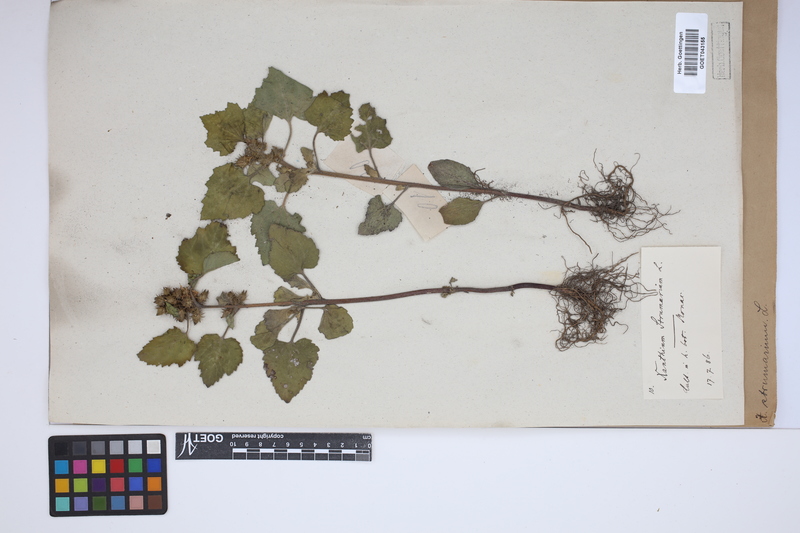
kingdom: Plantae
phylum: Tracheophyta
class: Magnoliopsida
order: Asterales
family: Asteraceae
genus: Xanthium
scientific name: Xanthium strumarium
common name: Rough cocklebur
